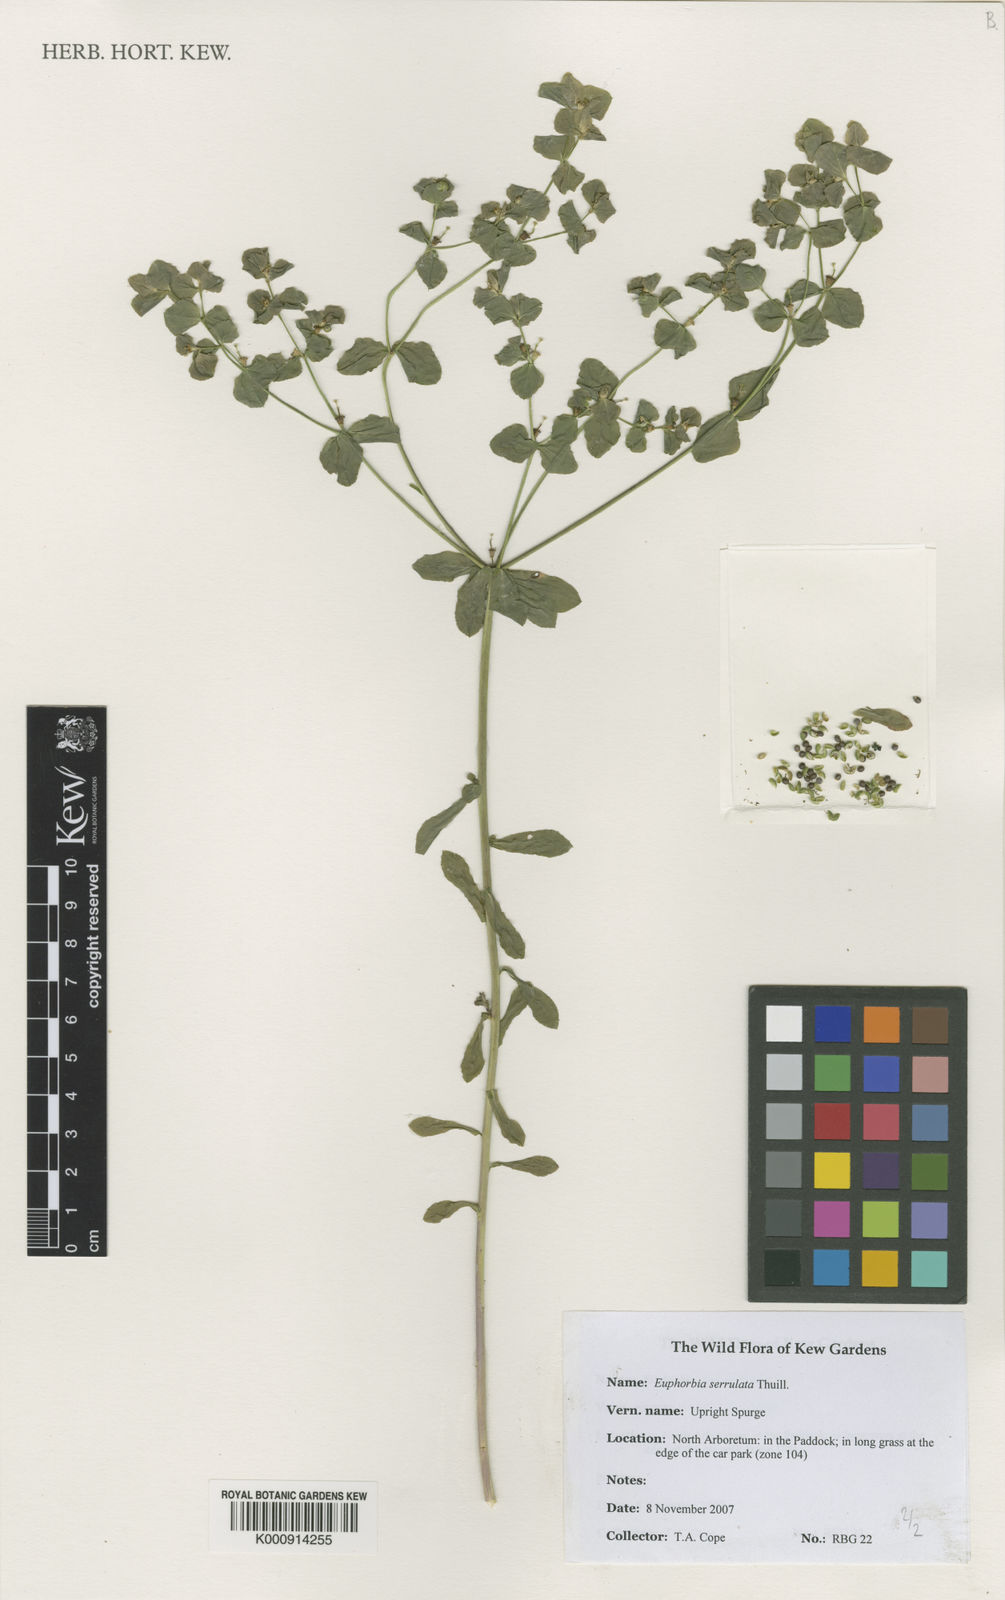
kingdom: Plantae
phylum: Tracheophyta
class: Magnoliopsida
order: Malpighiales
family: Euphorbiaceae
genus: Euphorbia
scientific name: Euphorbia stricta
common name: Upright spurge
